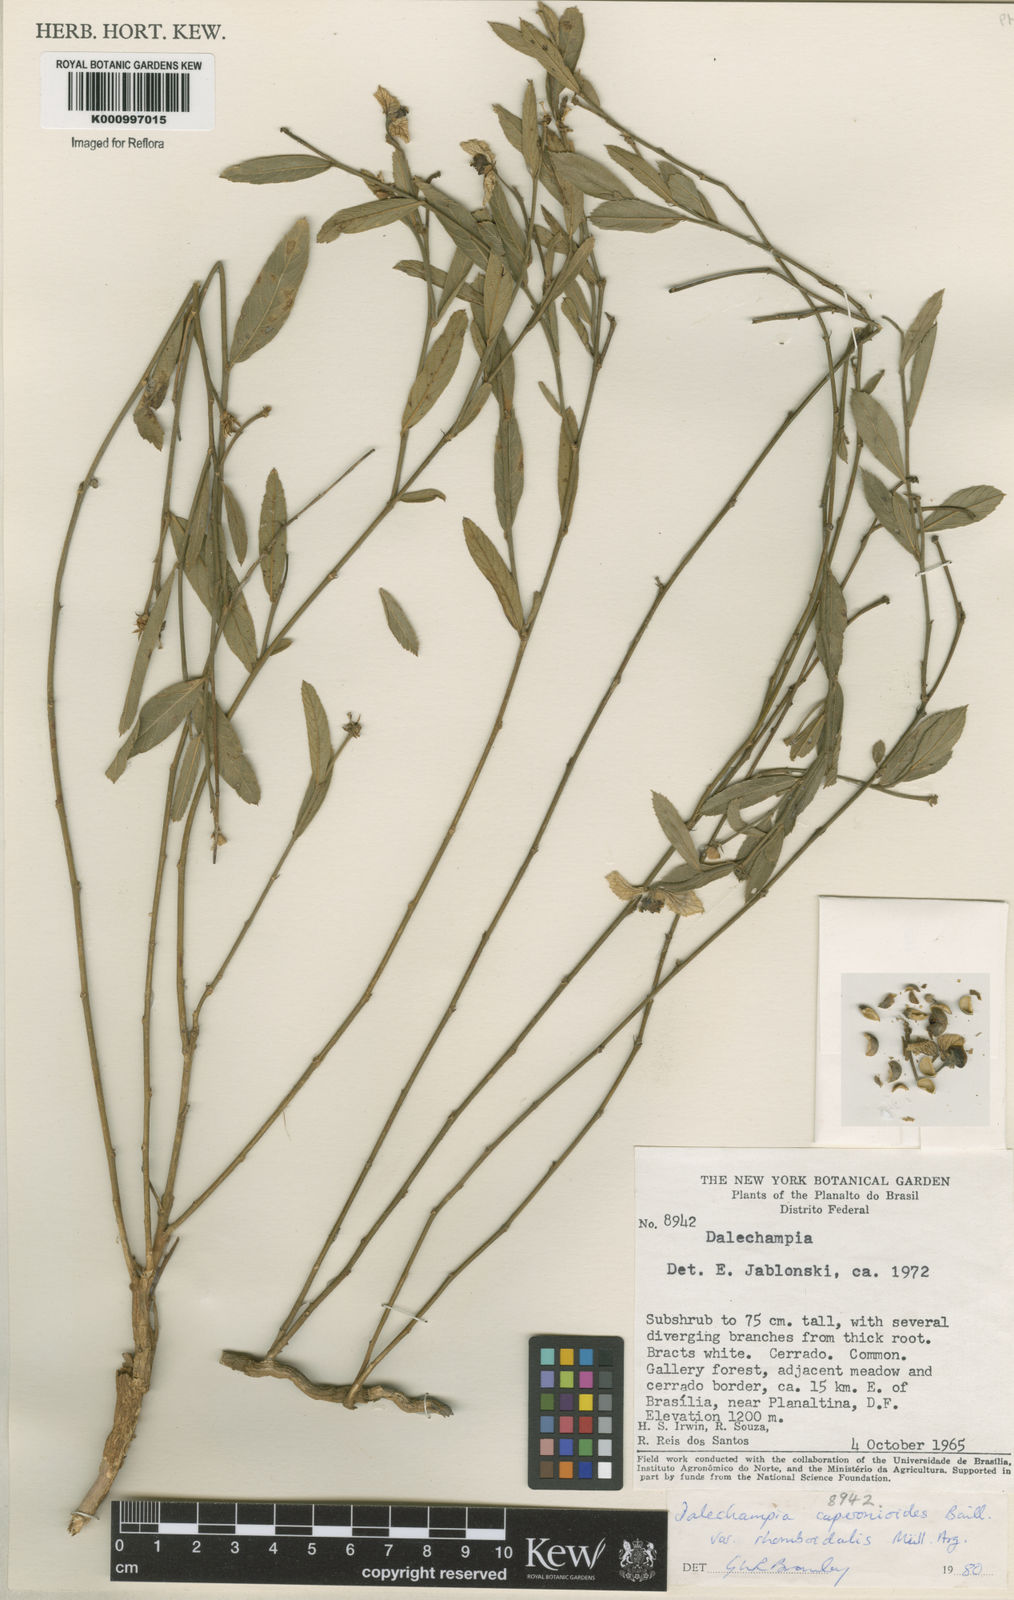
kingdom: Plantae
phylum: Tracheophyta
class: Magnoliopsida
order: Malpighiales
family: Euphorbiaceae
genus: Dalechampia
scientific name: Dalechampia caperonioides
